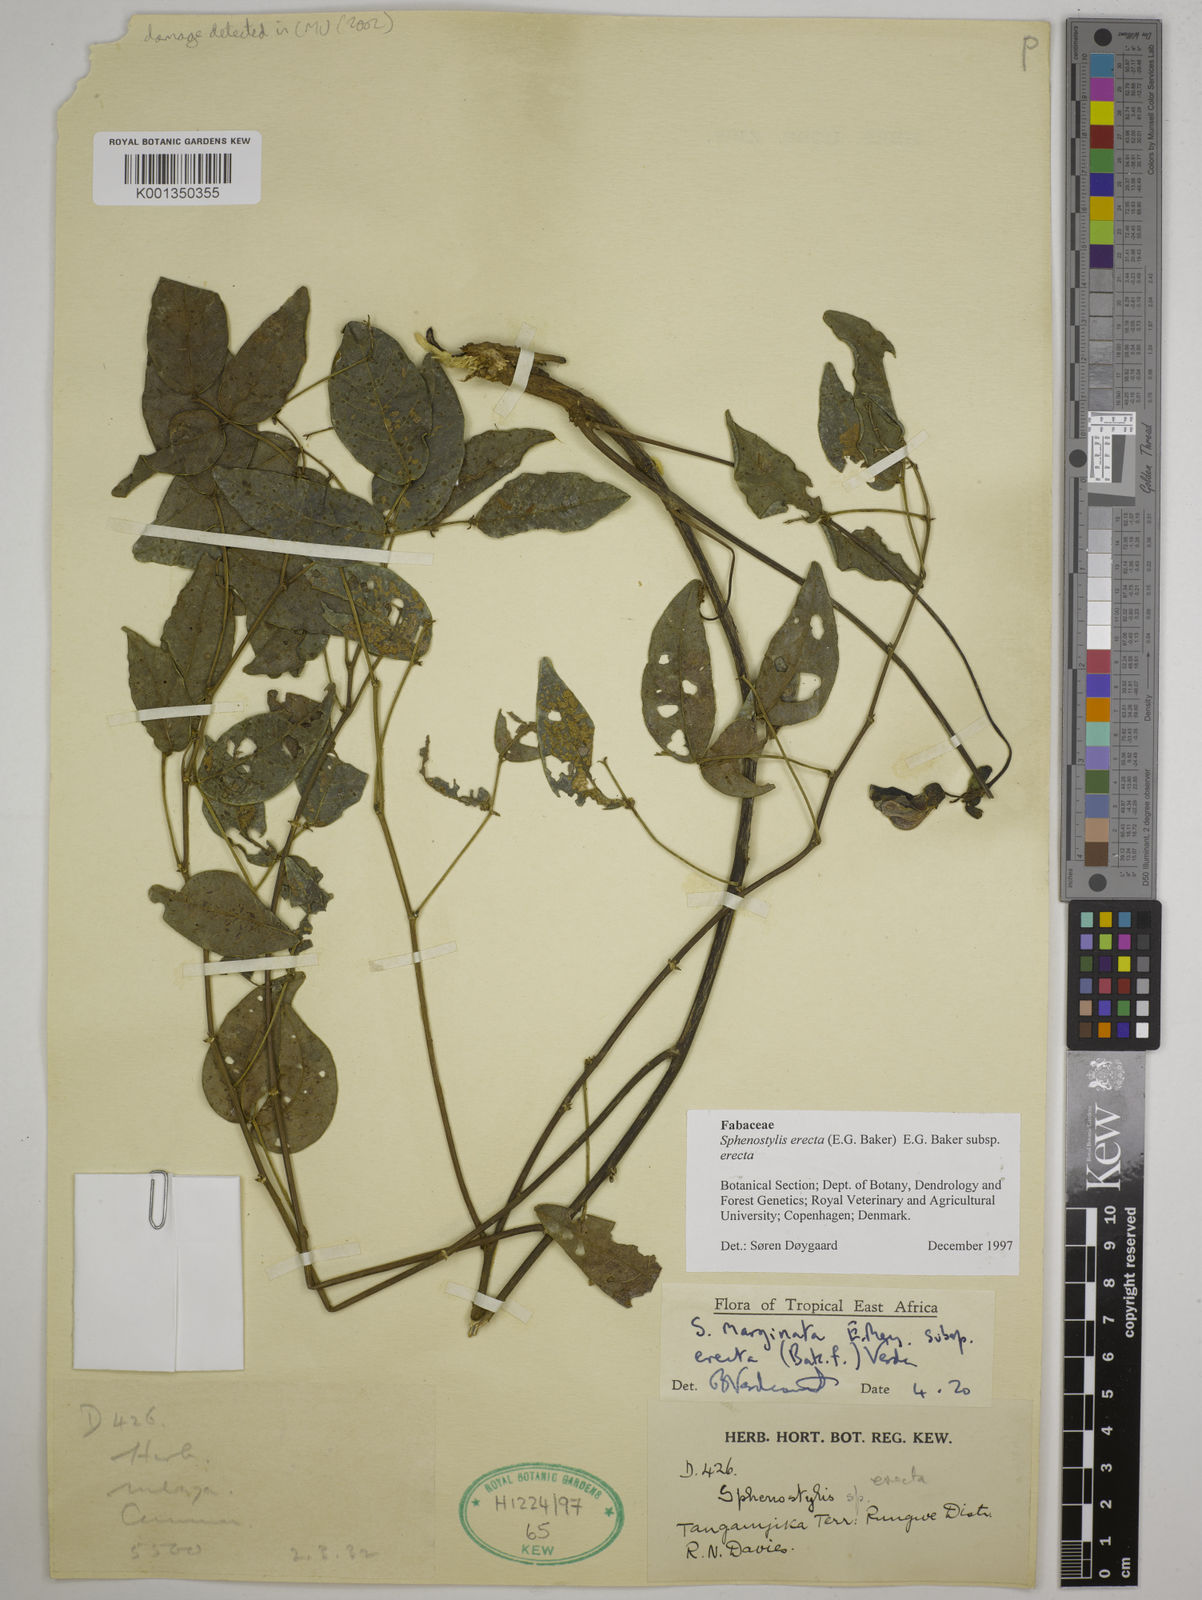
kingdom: Plantae
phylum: Tracheophyta
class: Magnoliopsida
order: Fabales
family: Fabaceae
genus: Sphenostylis
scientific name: Sphenostylis erecta
